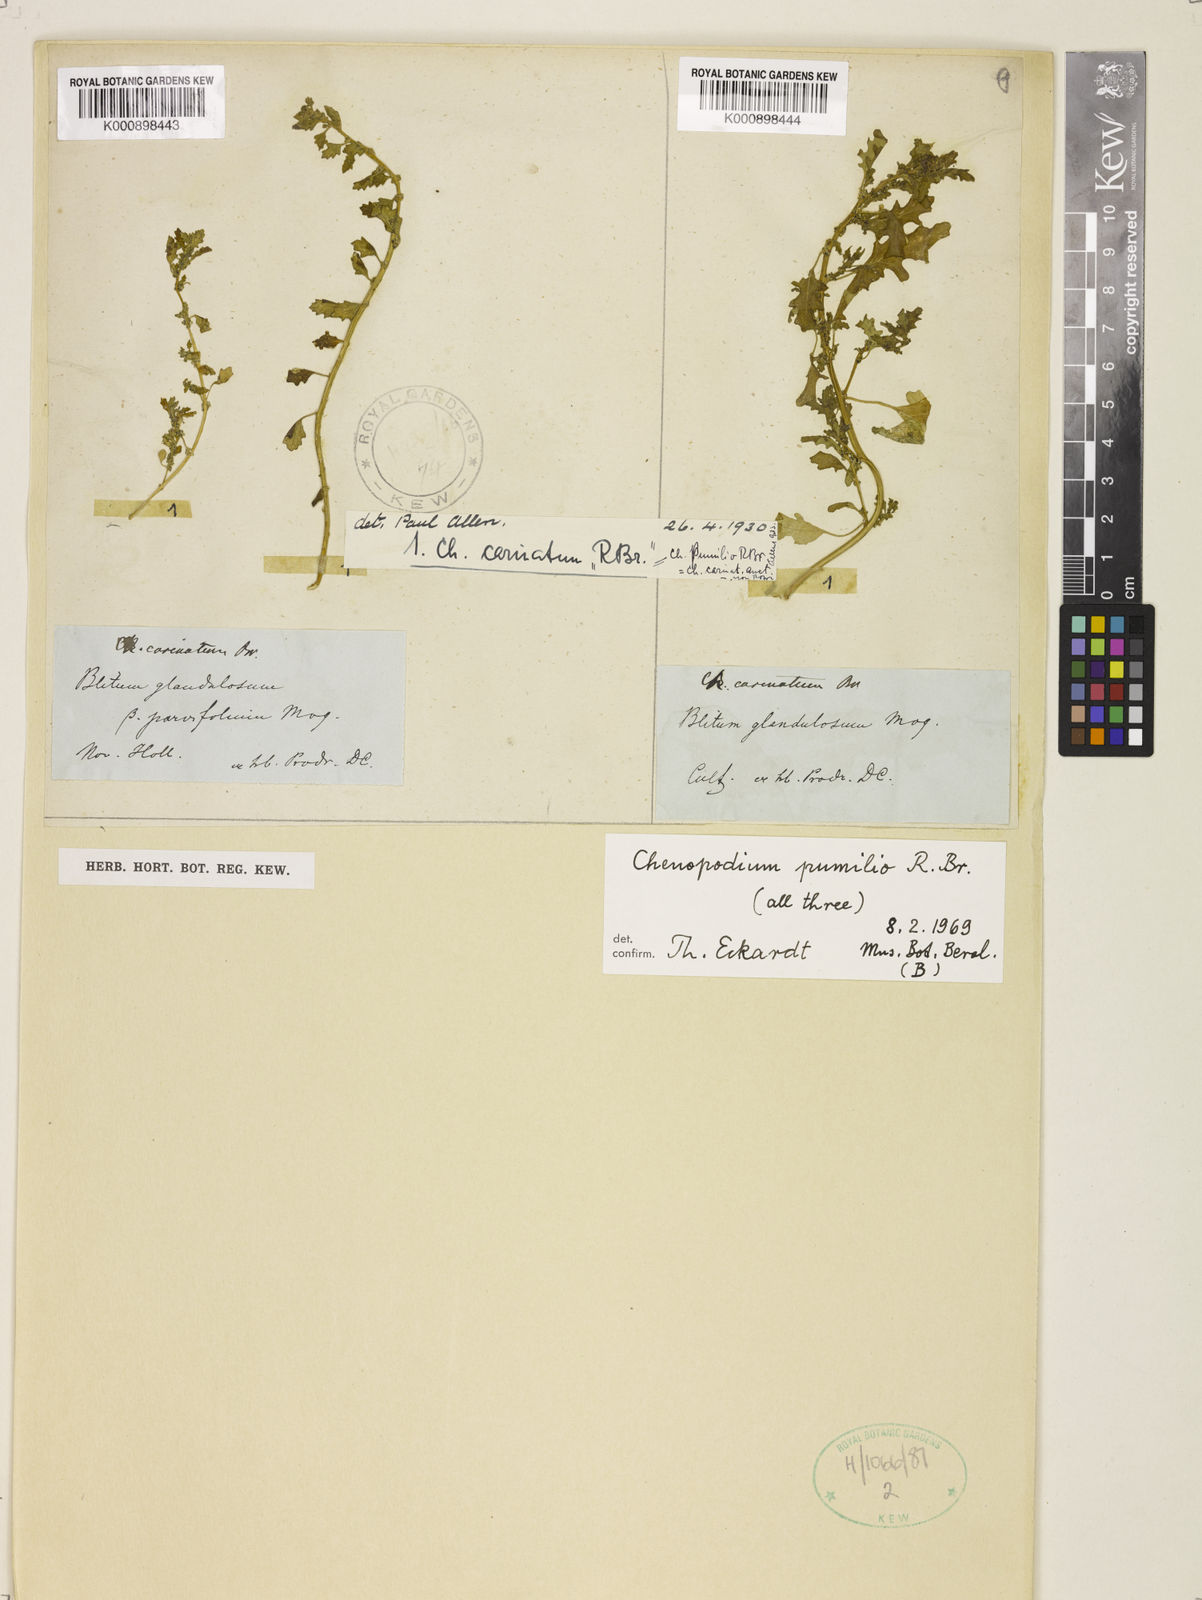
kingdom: Plantae
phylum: Tracheophyta
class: Magnoliopsida
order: Caryophyllales
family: Amaranthaceae
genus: Dysphania
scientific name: Dysphania pumilio
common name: Clammy goosefoot
